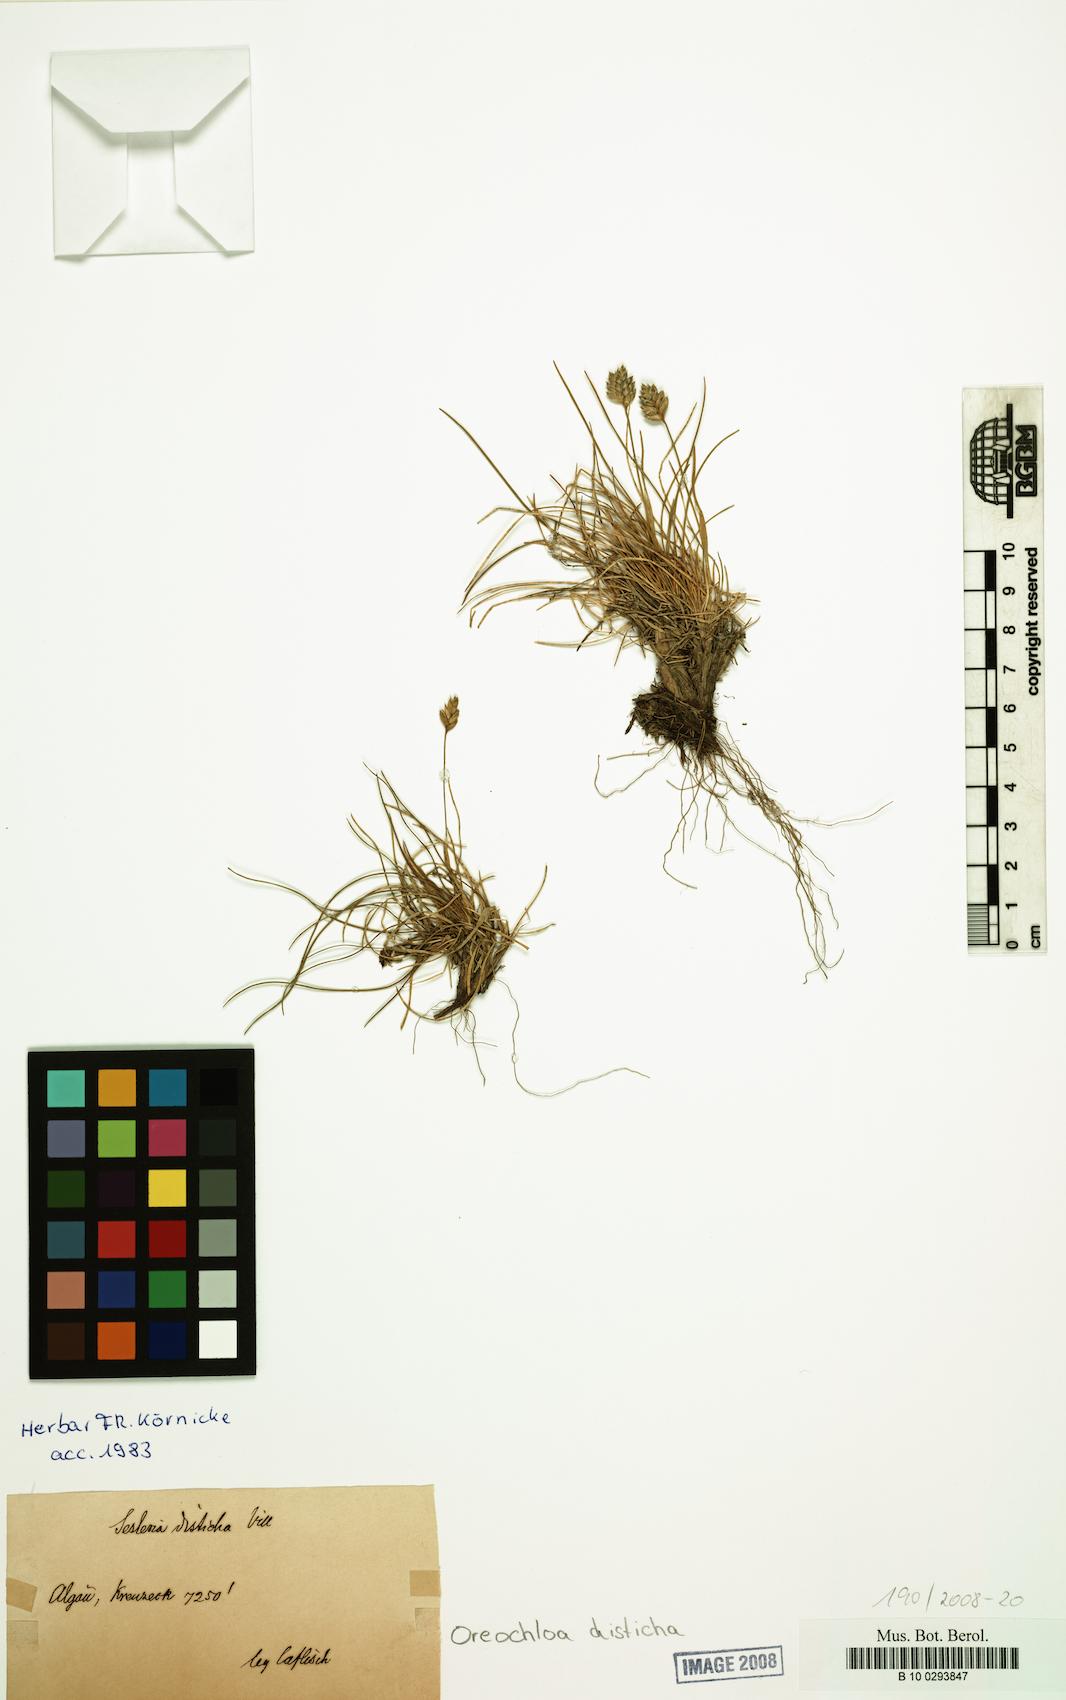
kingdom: Plantae
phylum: Tracheophyta
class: Liliopsida
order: Poales
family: Poaceae
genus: Oreochloa
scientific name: Oreochloa disticha
